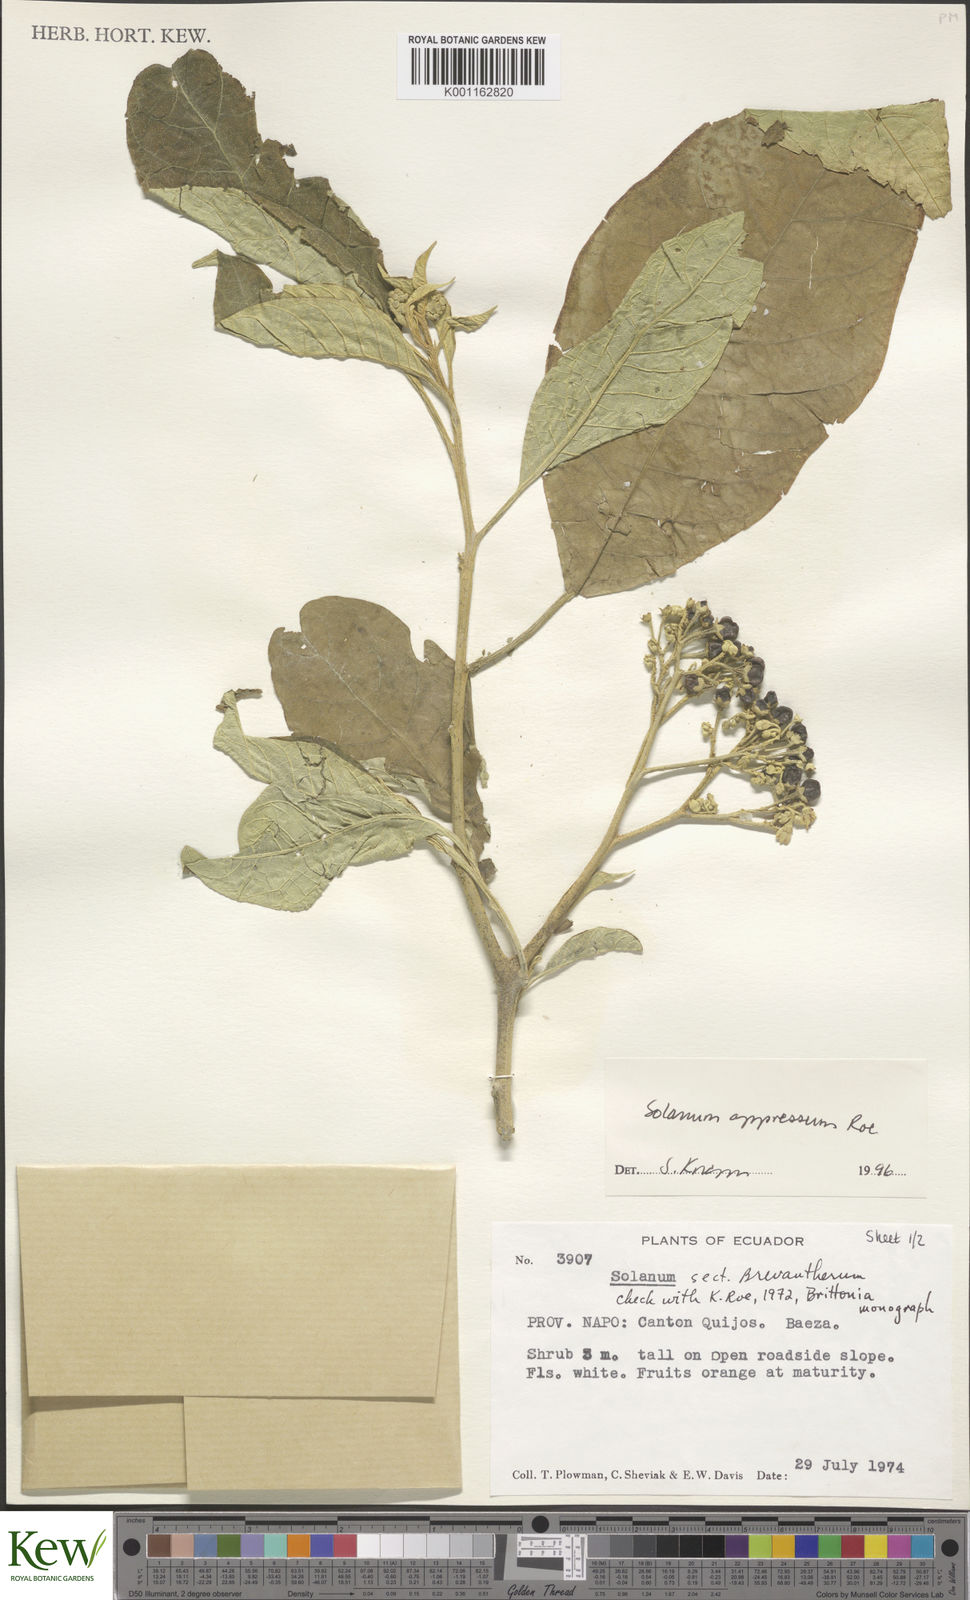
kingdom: Plantae
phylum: Tracheophyta
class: Magnoliopsida
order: Solanales
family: Solanaceae
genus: Solanum
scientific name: Solanum appressum
